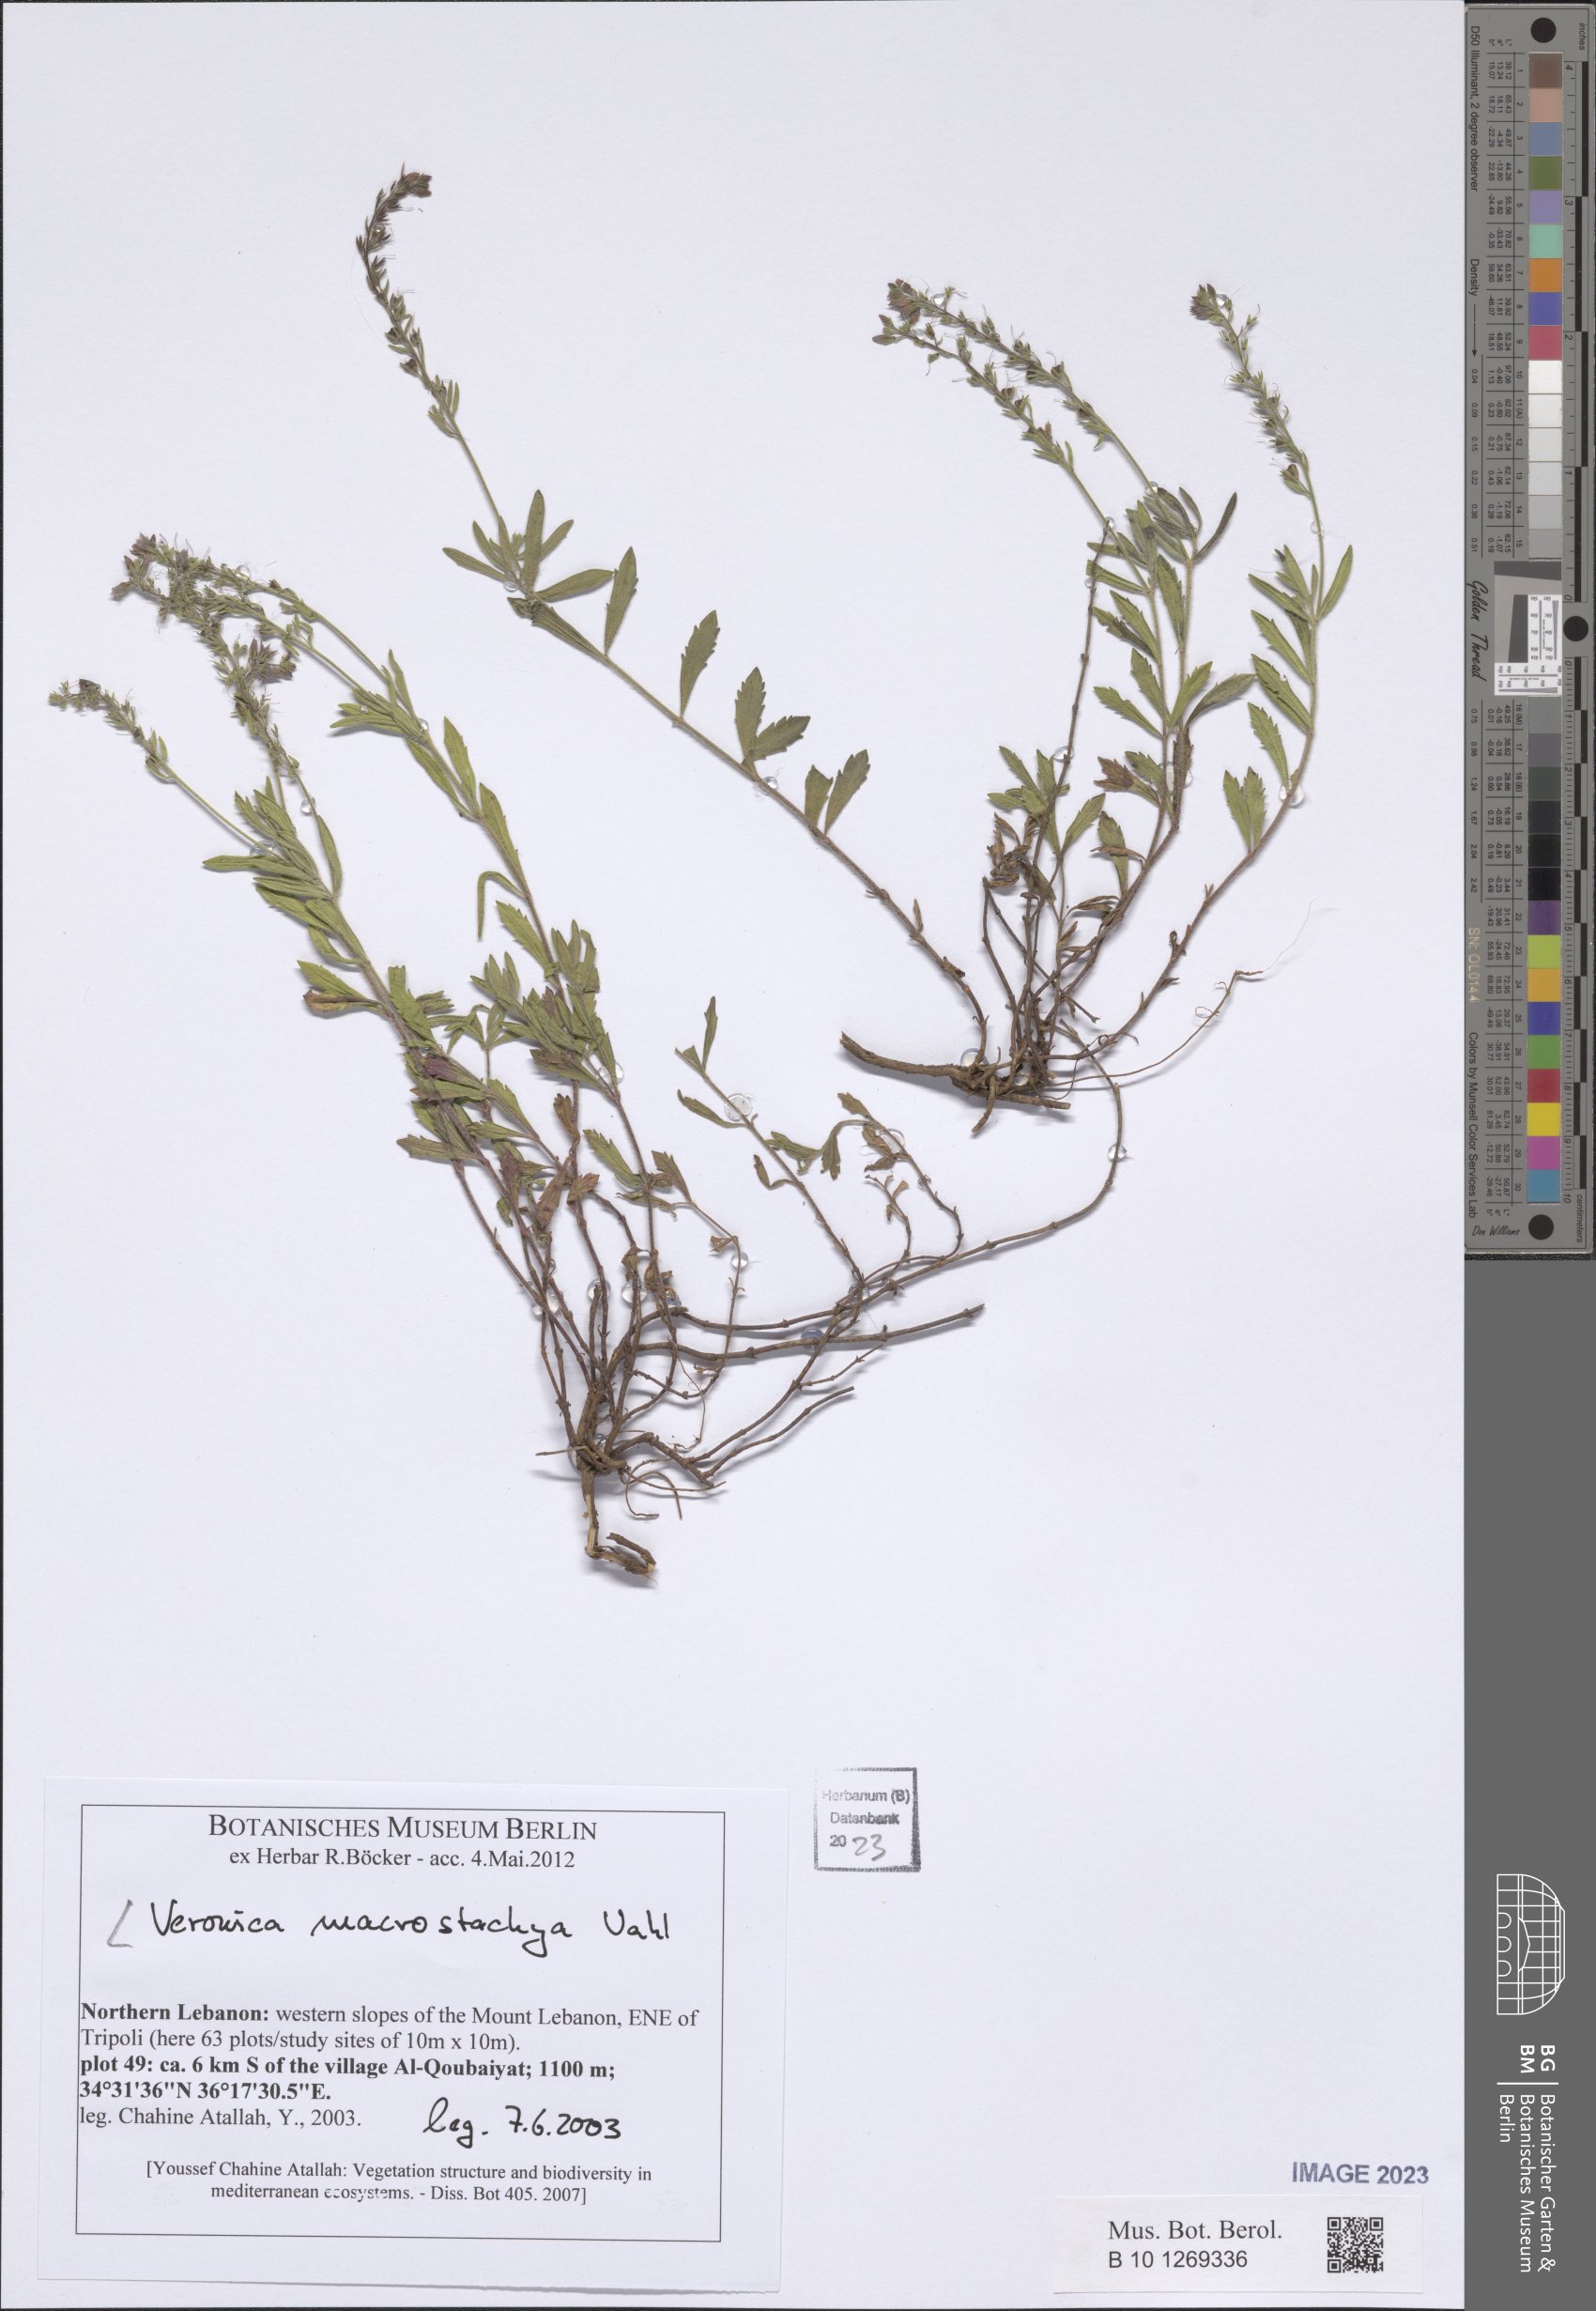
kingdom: Plantae
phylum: Tracheophyta
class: Magnoliopsida
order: Lamiales
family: Plantaginaceae
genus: Veronica
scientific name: Veronica macrostachya
